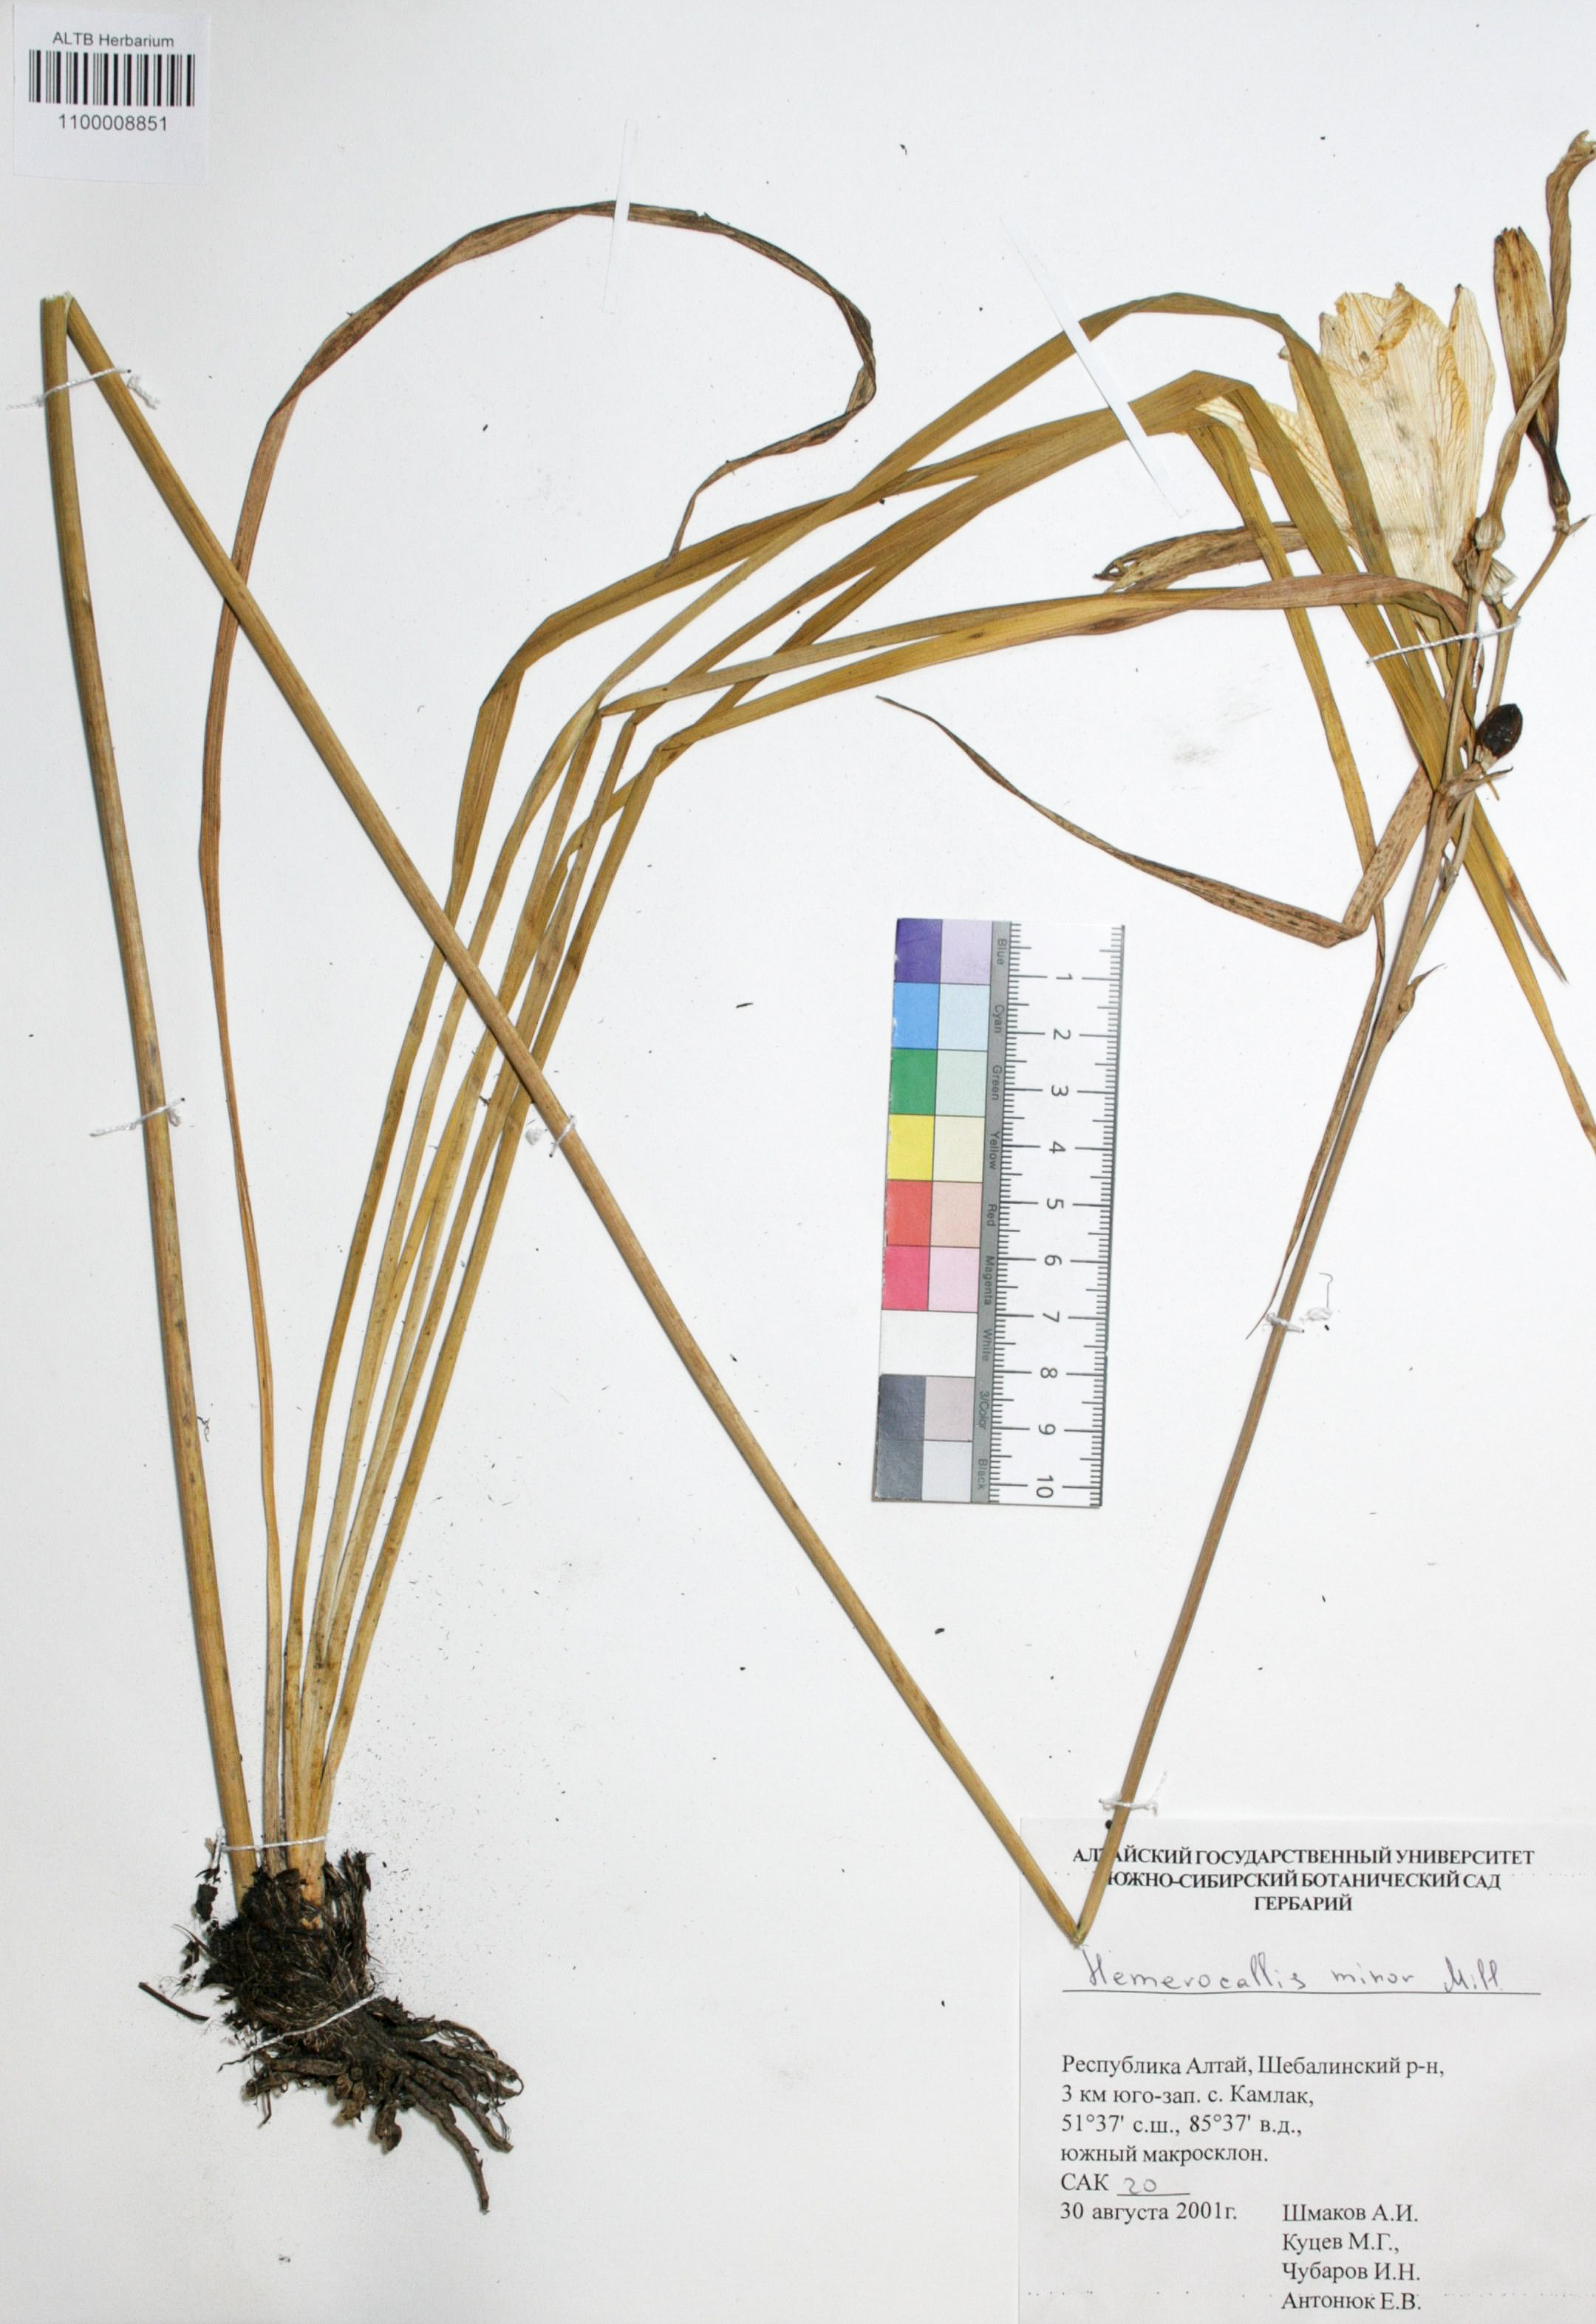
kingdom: Plantae
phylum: Tracheophyta
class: Liliopsida
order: Asparagales
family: Asphodelaceae
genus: Hemerocallis
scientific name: Hemerocallis minor
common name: Small daylily
